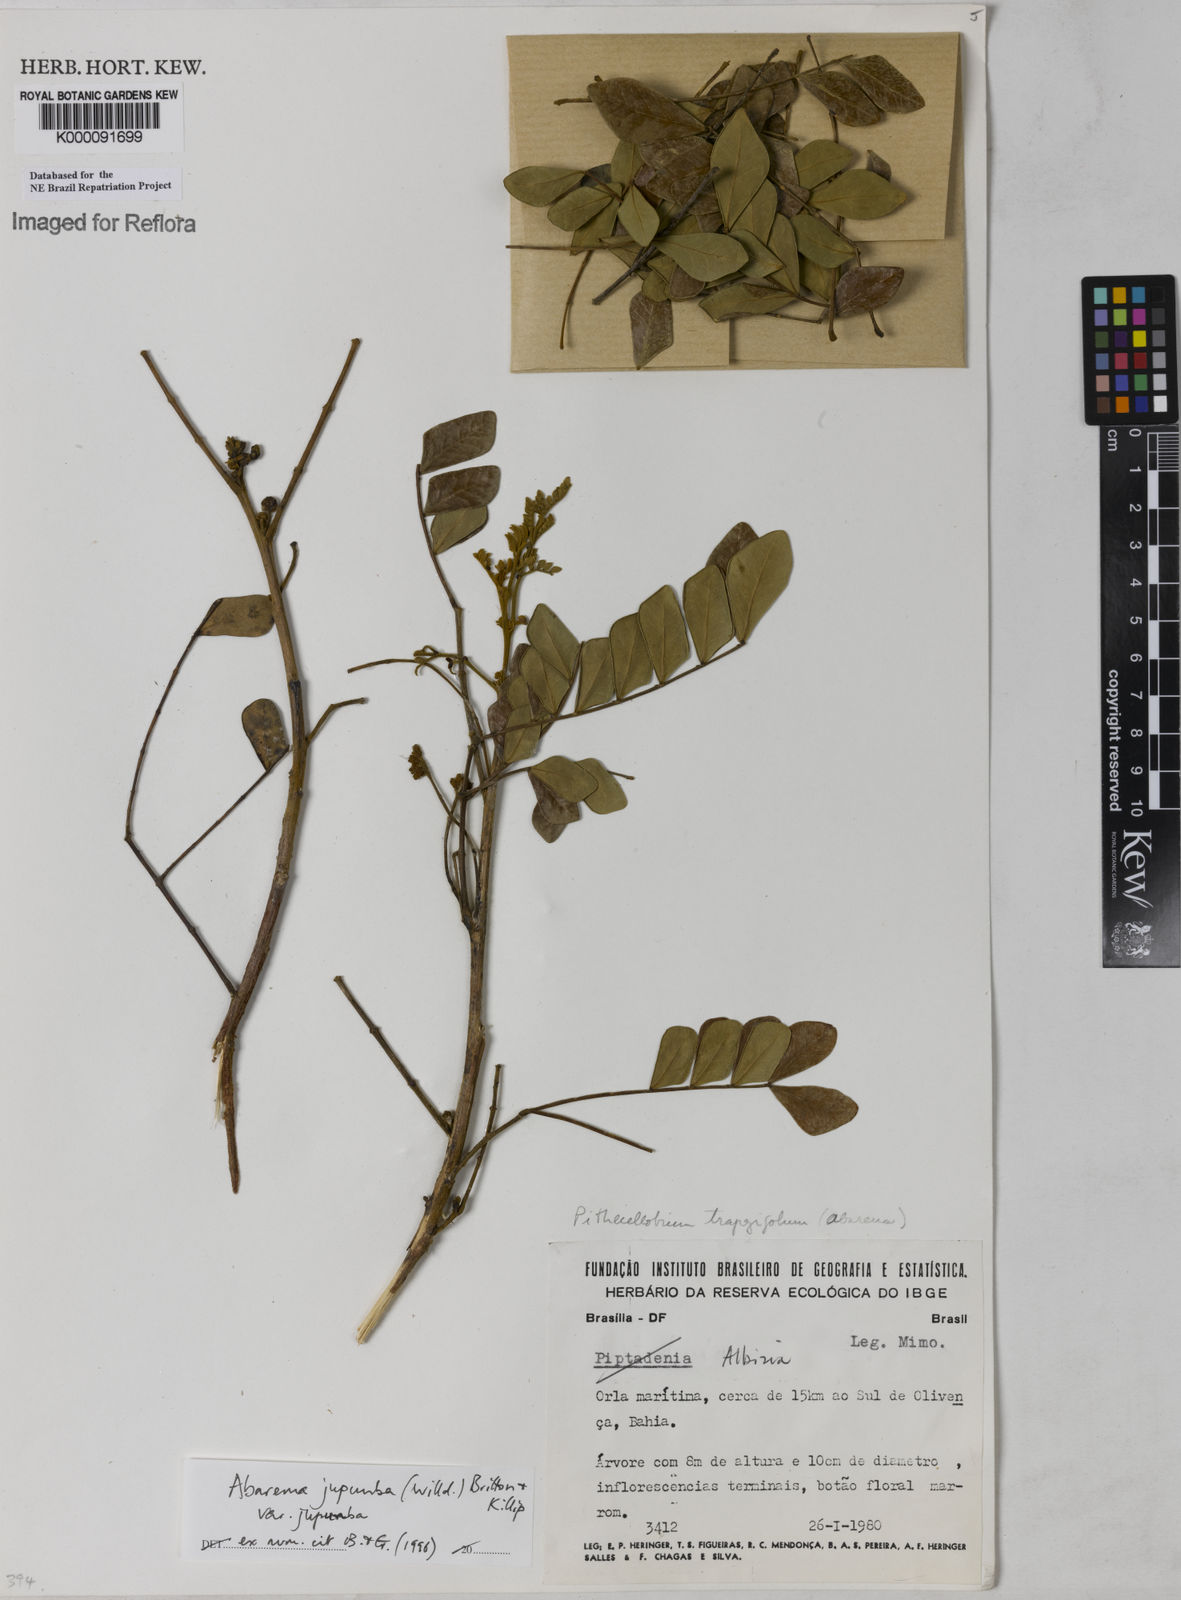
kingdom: Plantae
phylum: Tracheophyta
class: Magnoliopsida
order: Fabales
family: Fabaceae
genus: Jupunba
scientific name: Jupunba trapezifolia
